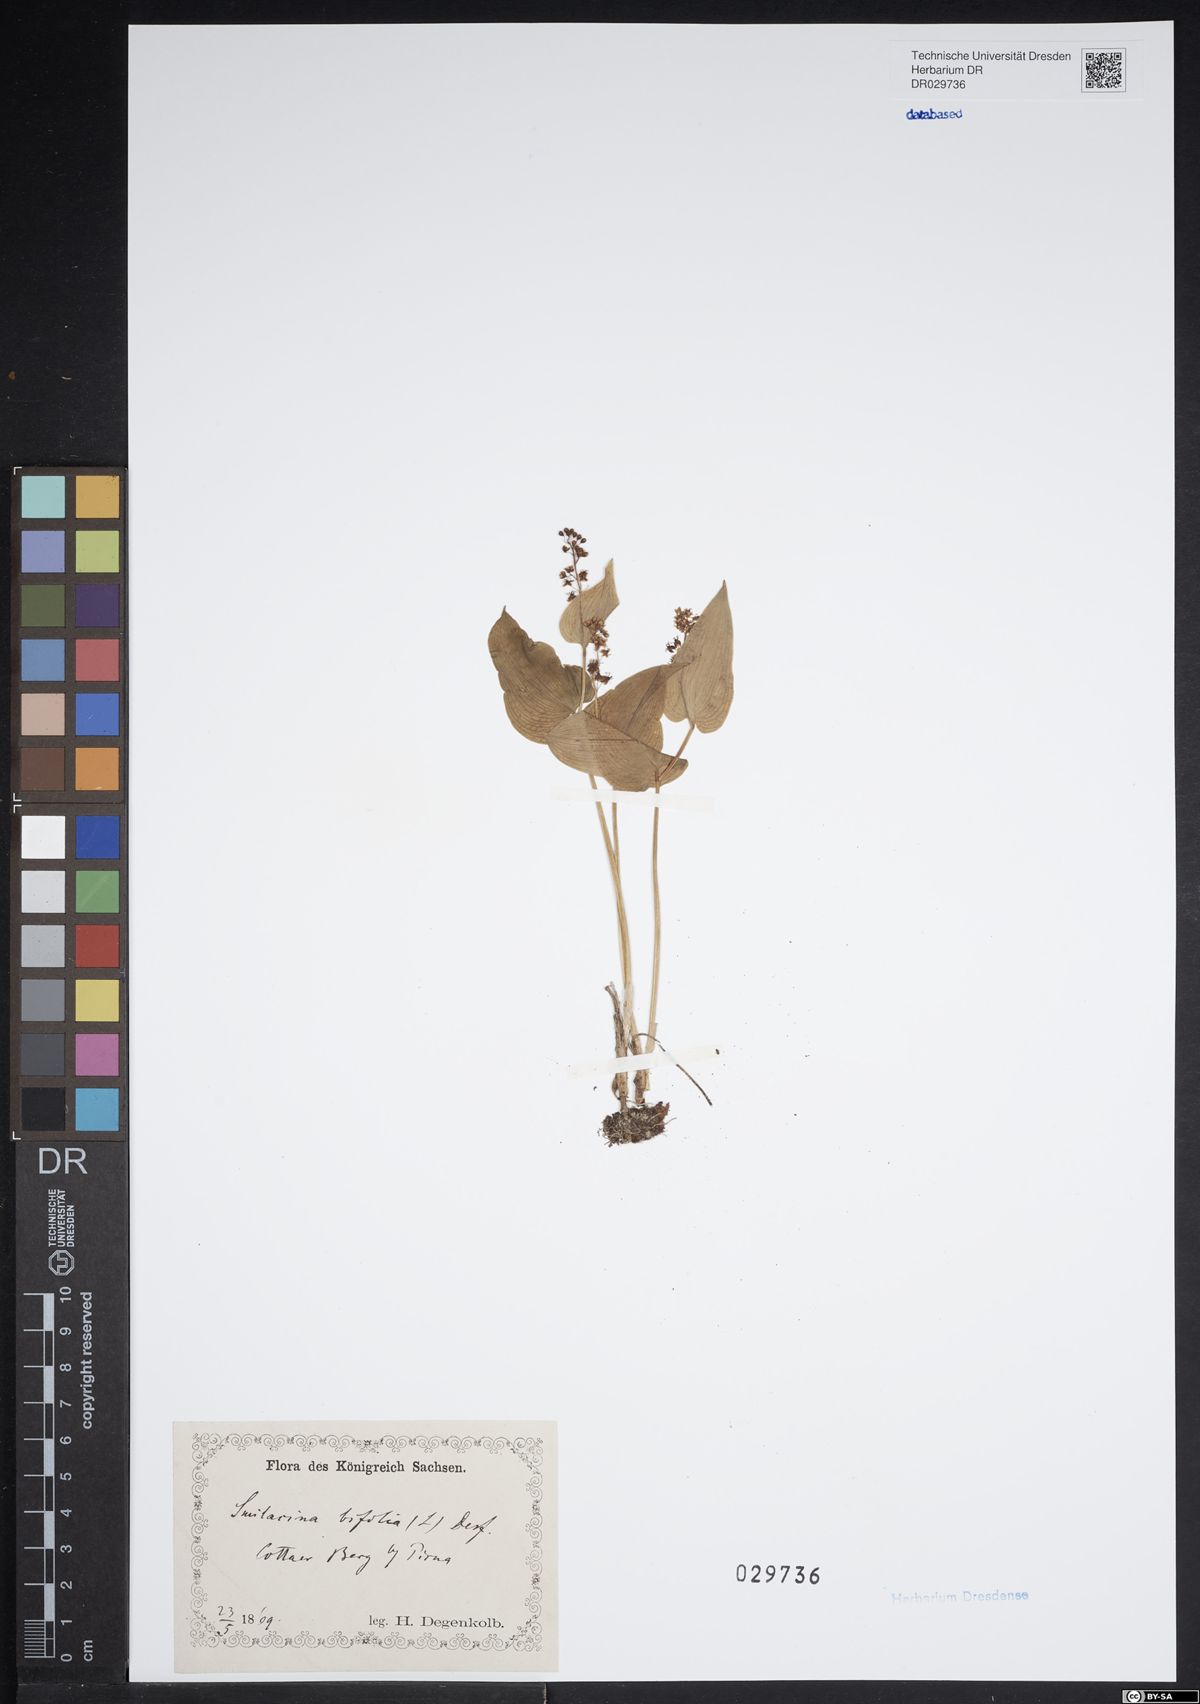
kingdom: Plantae
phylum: Tracheophyta
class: Liliopsida
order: Asparagales
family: Asparagaceae
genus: Maianthemum
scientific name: Maianthemum bifolium
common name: May lily
